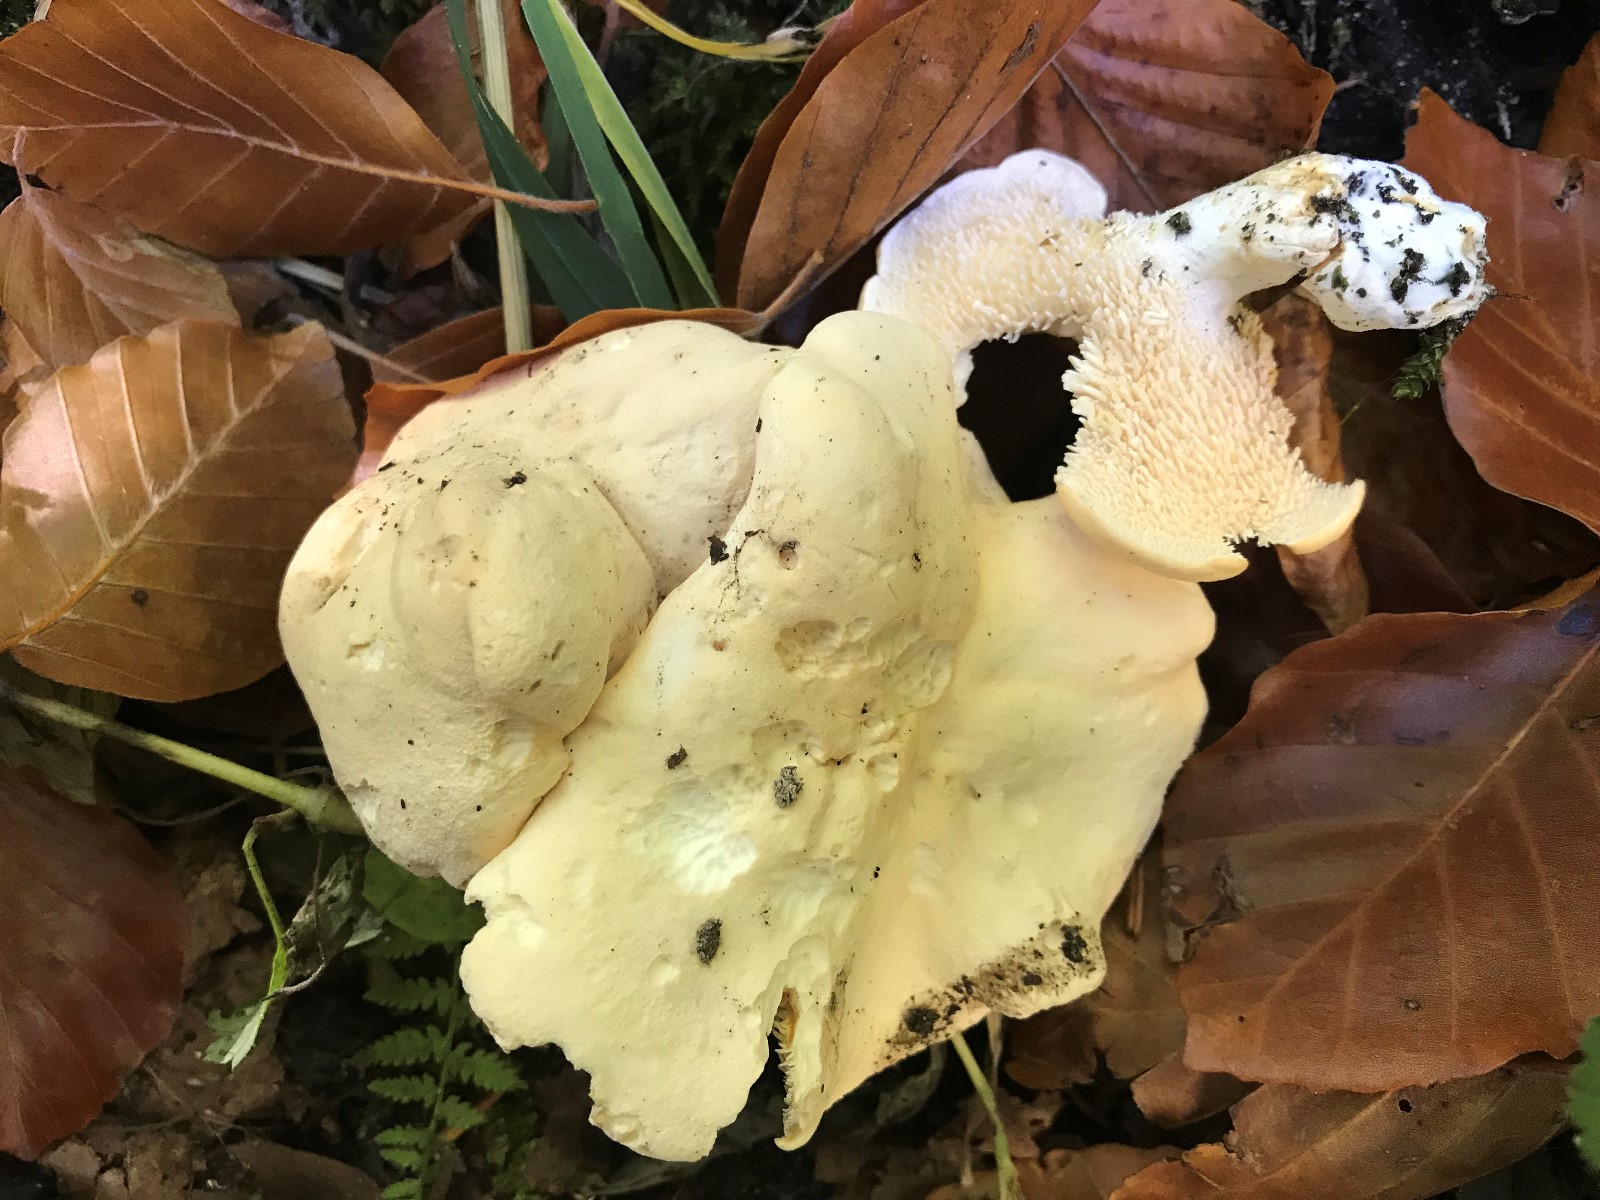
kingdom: Fungi
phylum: Basidiomycota
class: Agaricomycetes
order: Cantharellales
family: Hydnaceae
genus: Hydnum
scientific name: Hydnum repandum
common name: almindelig pigsvamp
